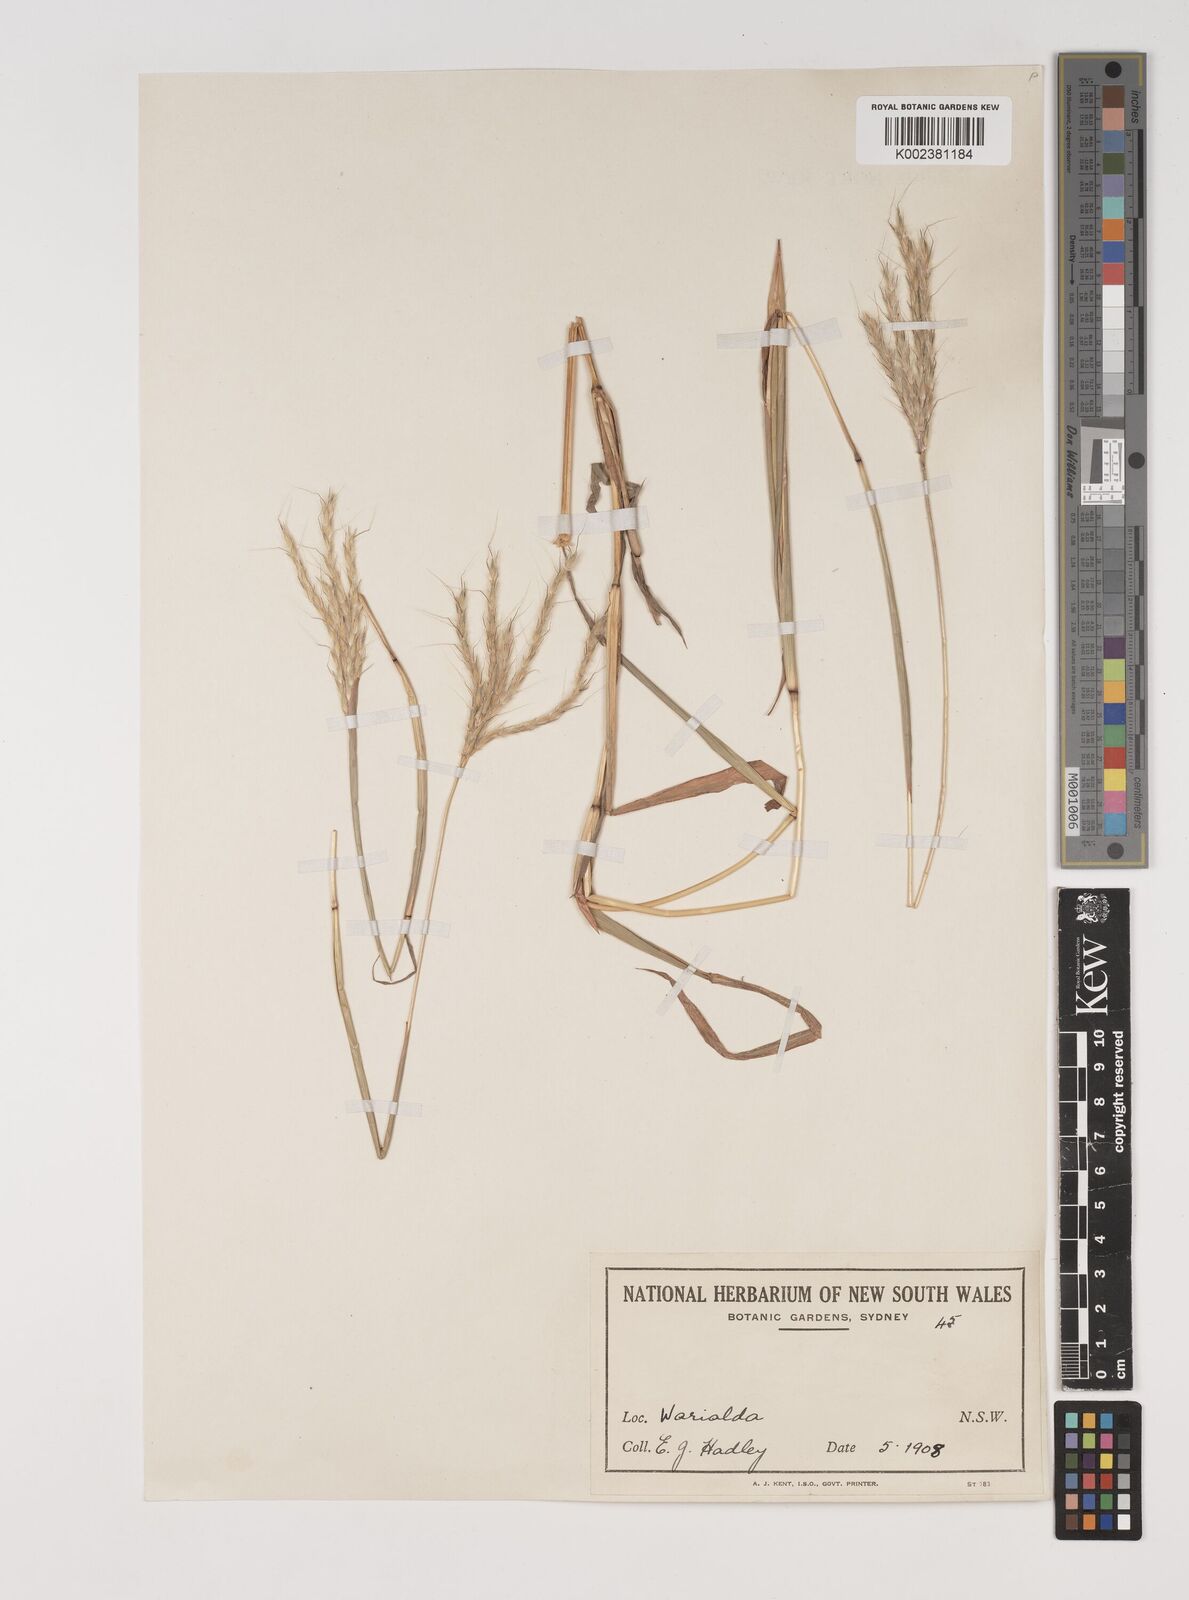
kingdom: Plantae
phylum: Tracheophyta
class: Liliopsida
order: Poales
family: Poaceae
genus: Bothriochloa
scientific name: Bothriochloa macra
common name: Pitted beard grass
